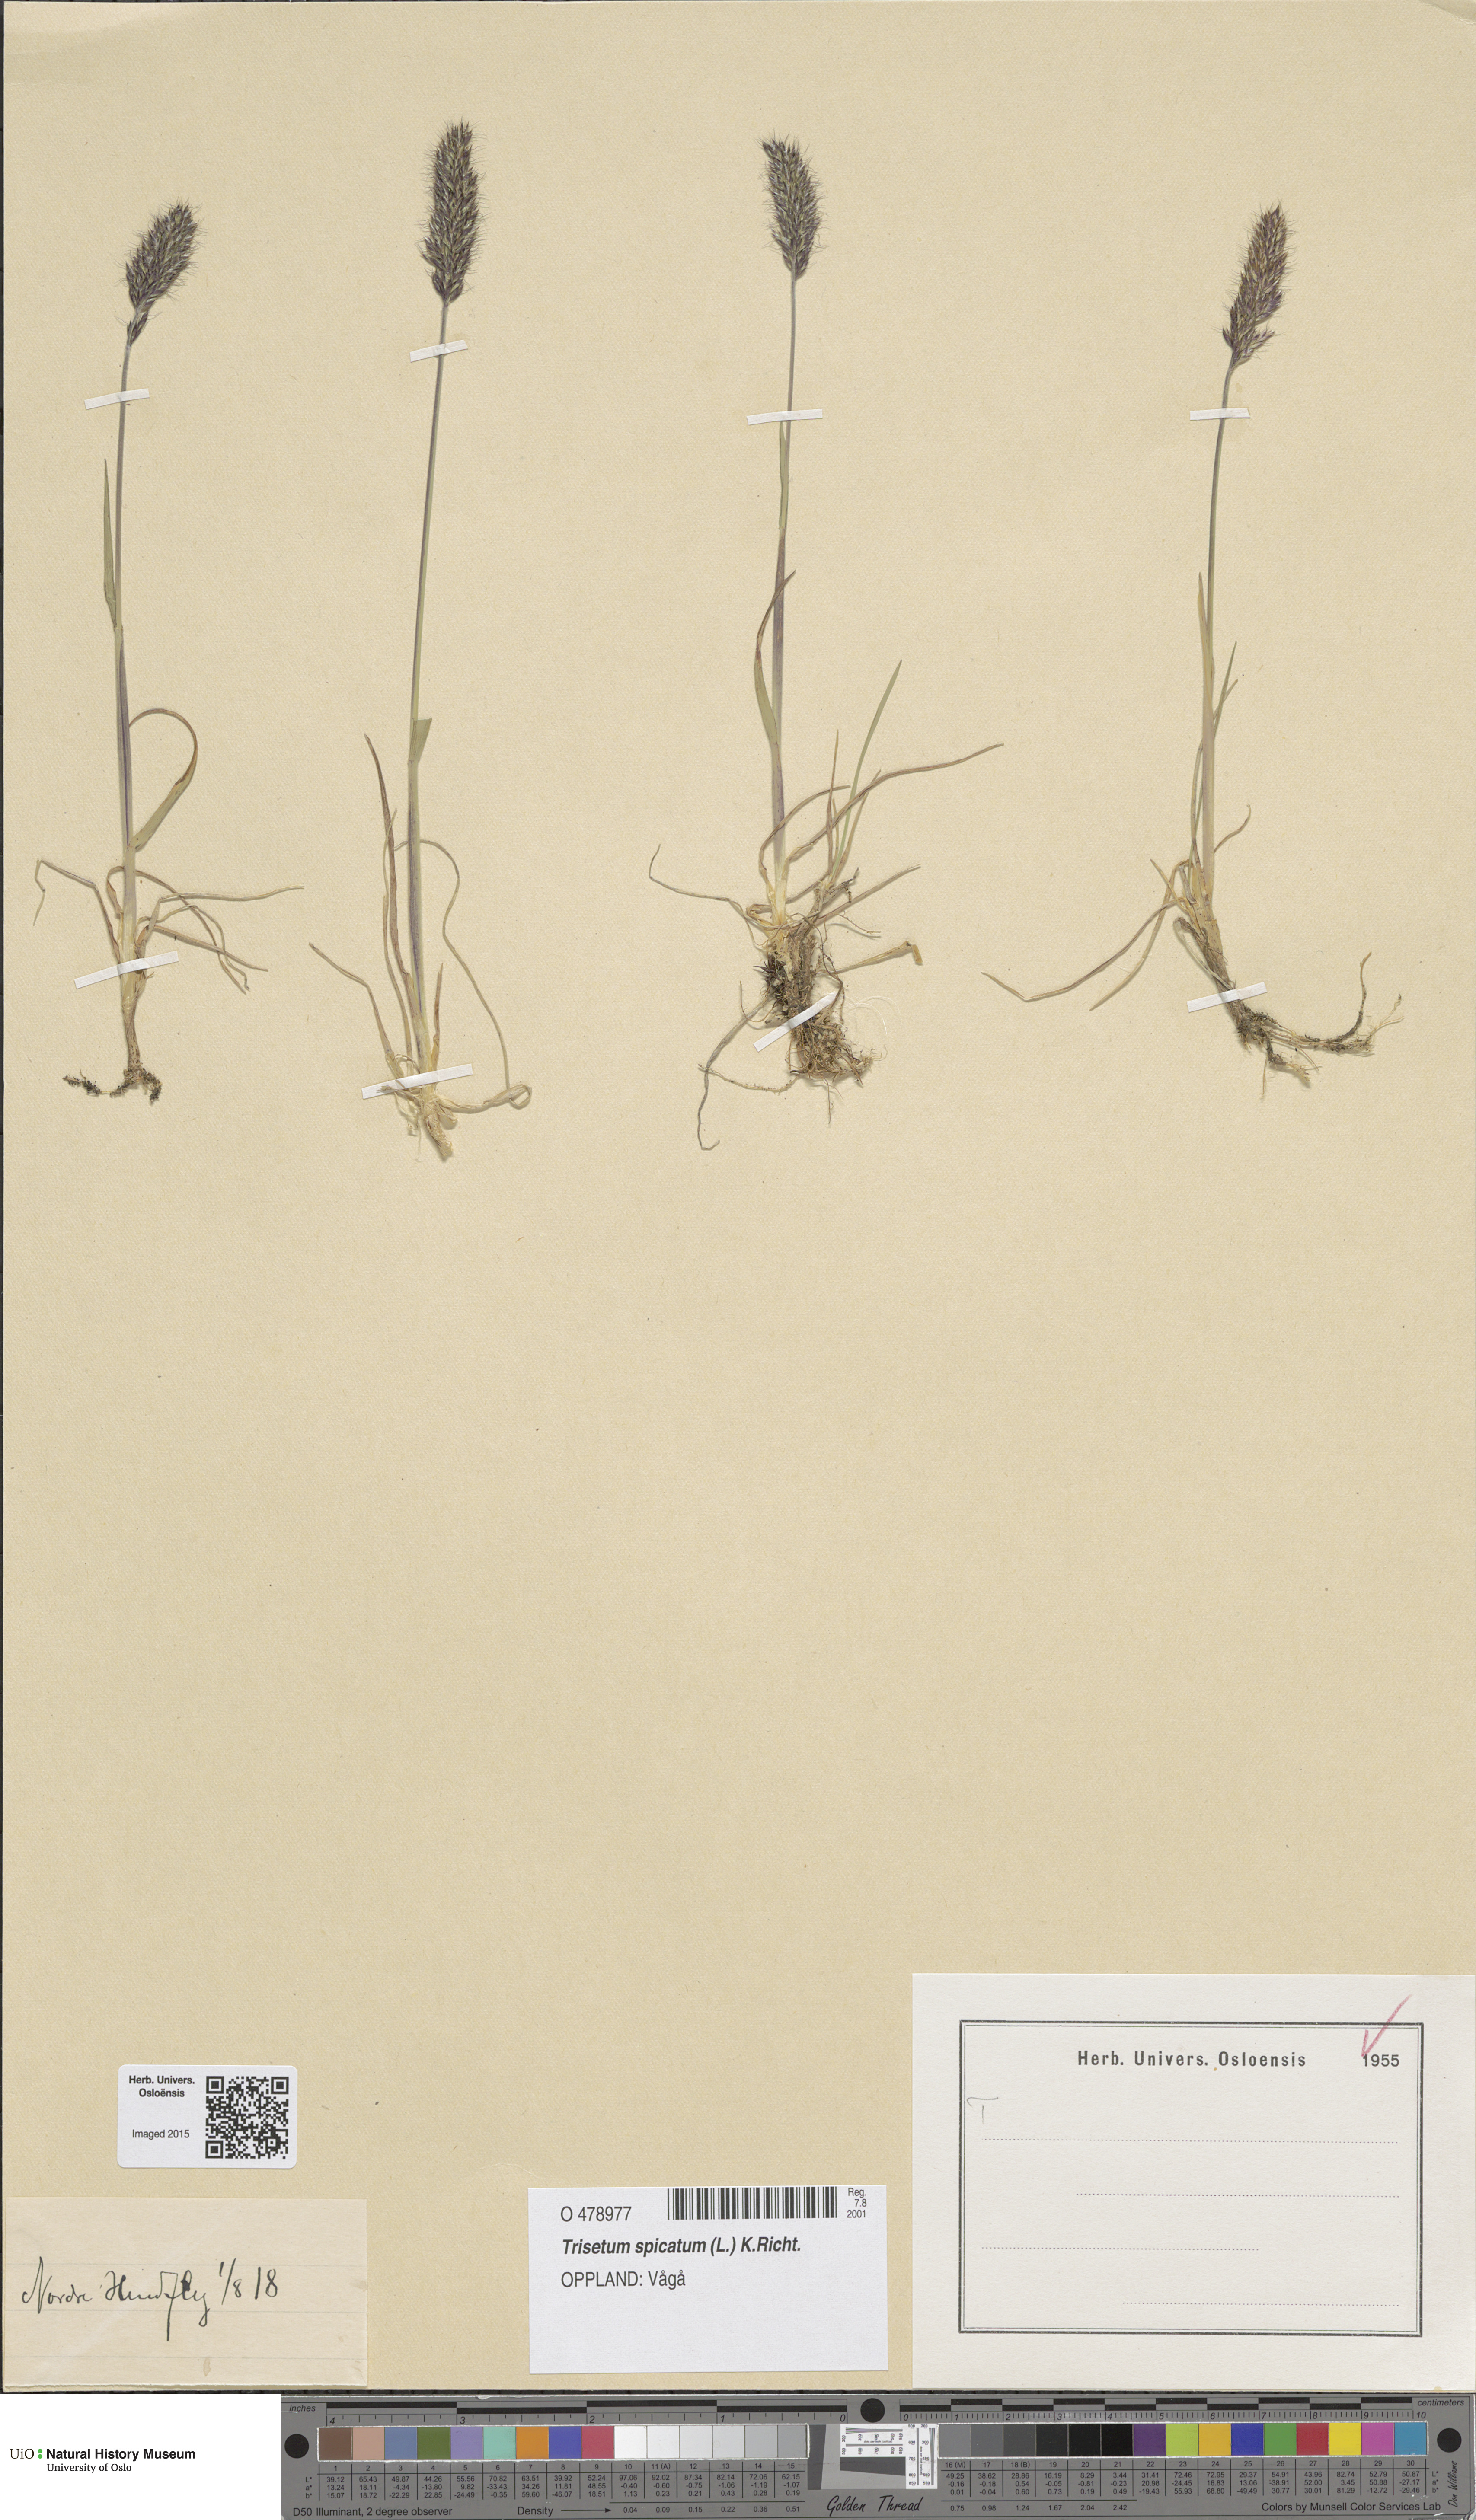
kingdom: Plantae
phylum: Tracheophyta
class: Liliopsida
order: Poales
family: Poaceae
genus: Koeleria
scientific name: Koeleria spicata
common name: Mountain trisetum
